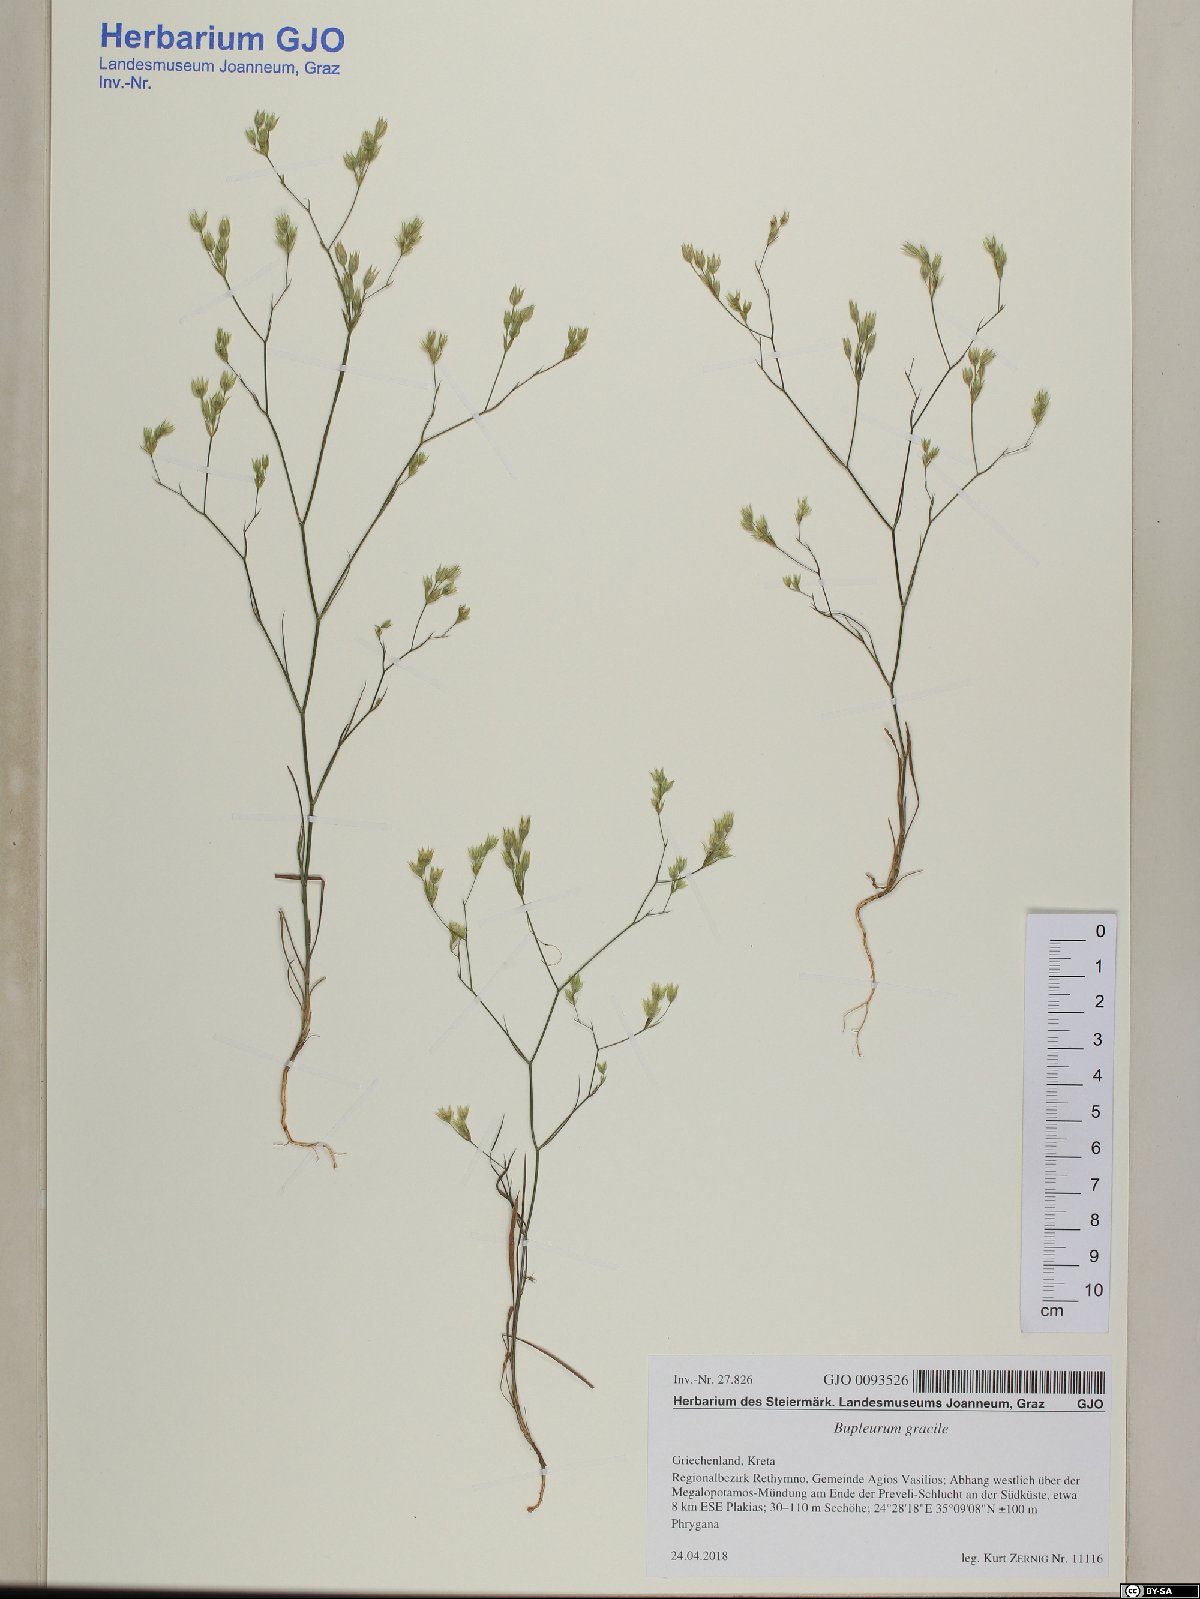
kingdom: Plantae
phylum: Tracheophyta
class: Magnoliopsida
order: Apiales
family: Apiaceae
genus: Bupleurum
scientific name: Bupleurum gracile
